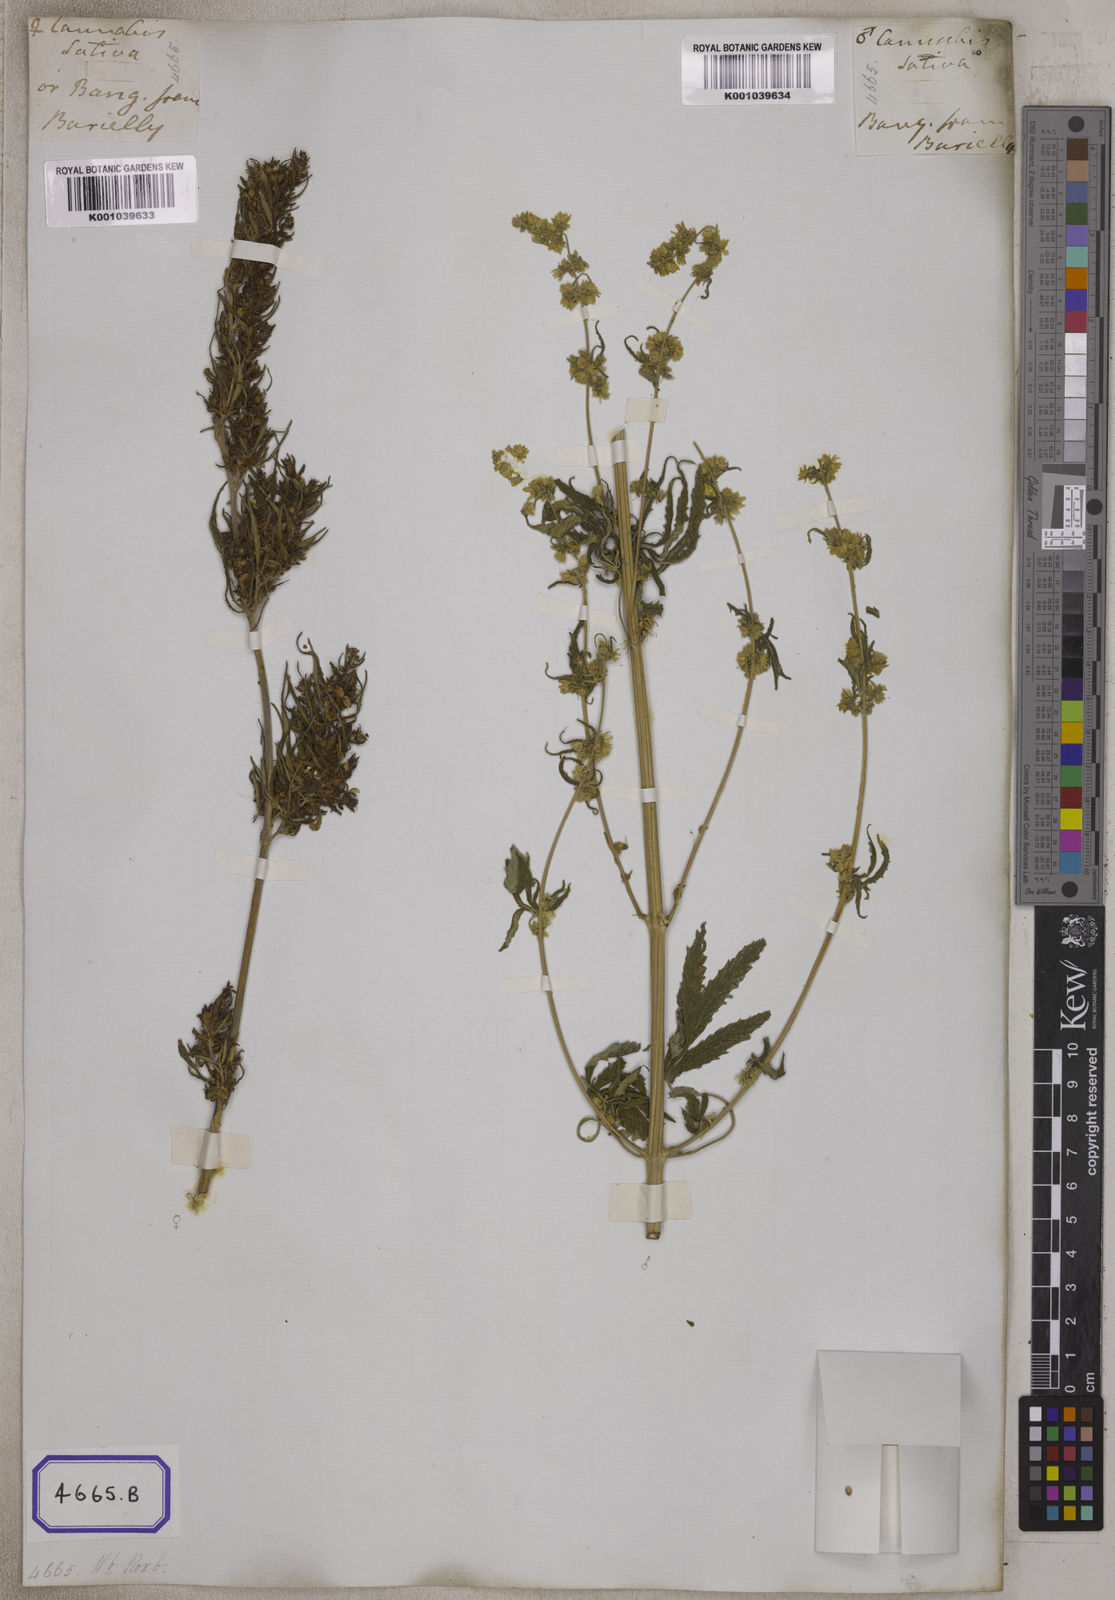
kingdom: Plantae
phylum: Tracheophyta
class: Magnoliopsida
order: Rosales
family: Cannabaceae
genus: Cannabis
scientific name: Cannabis sativa
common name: Hemp
